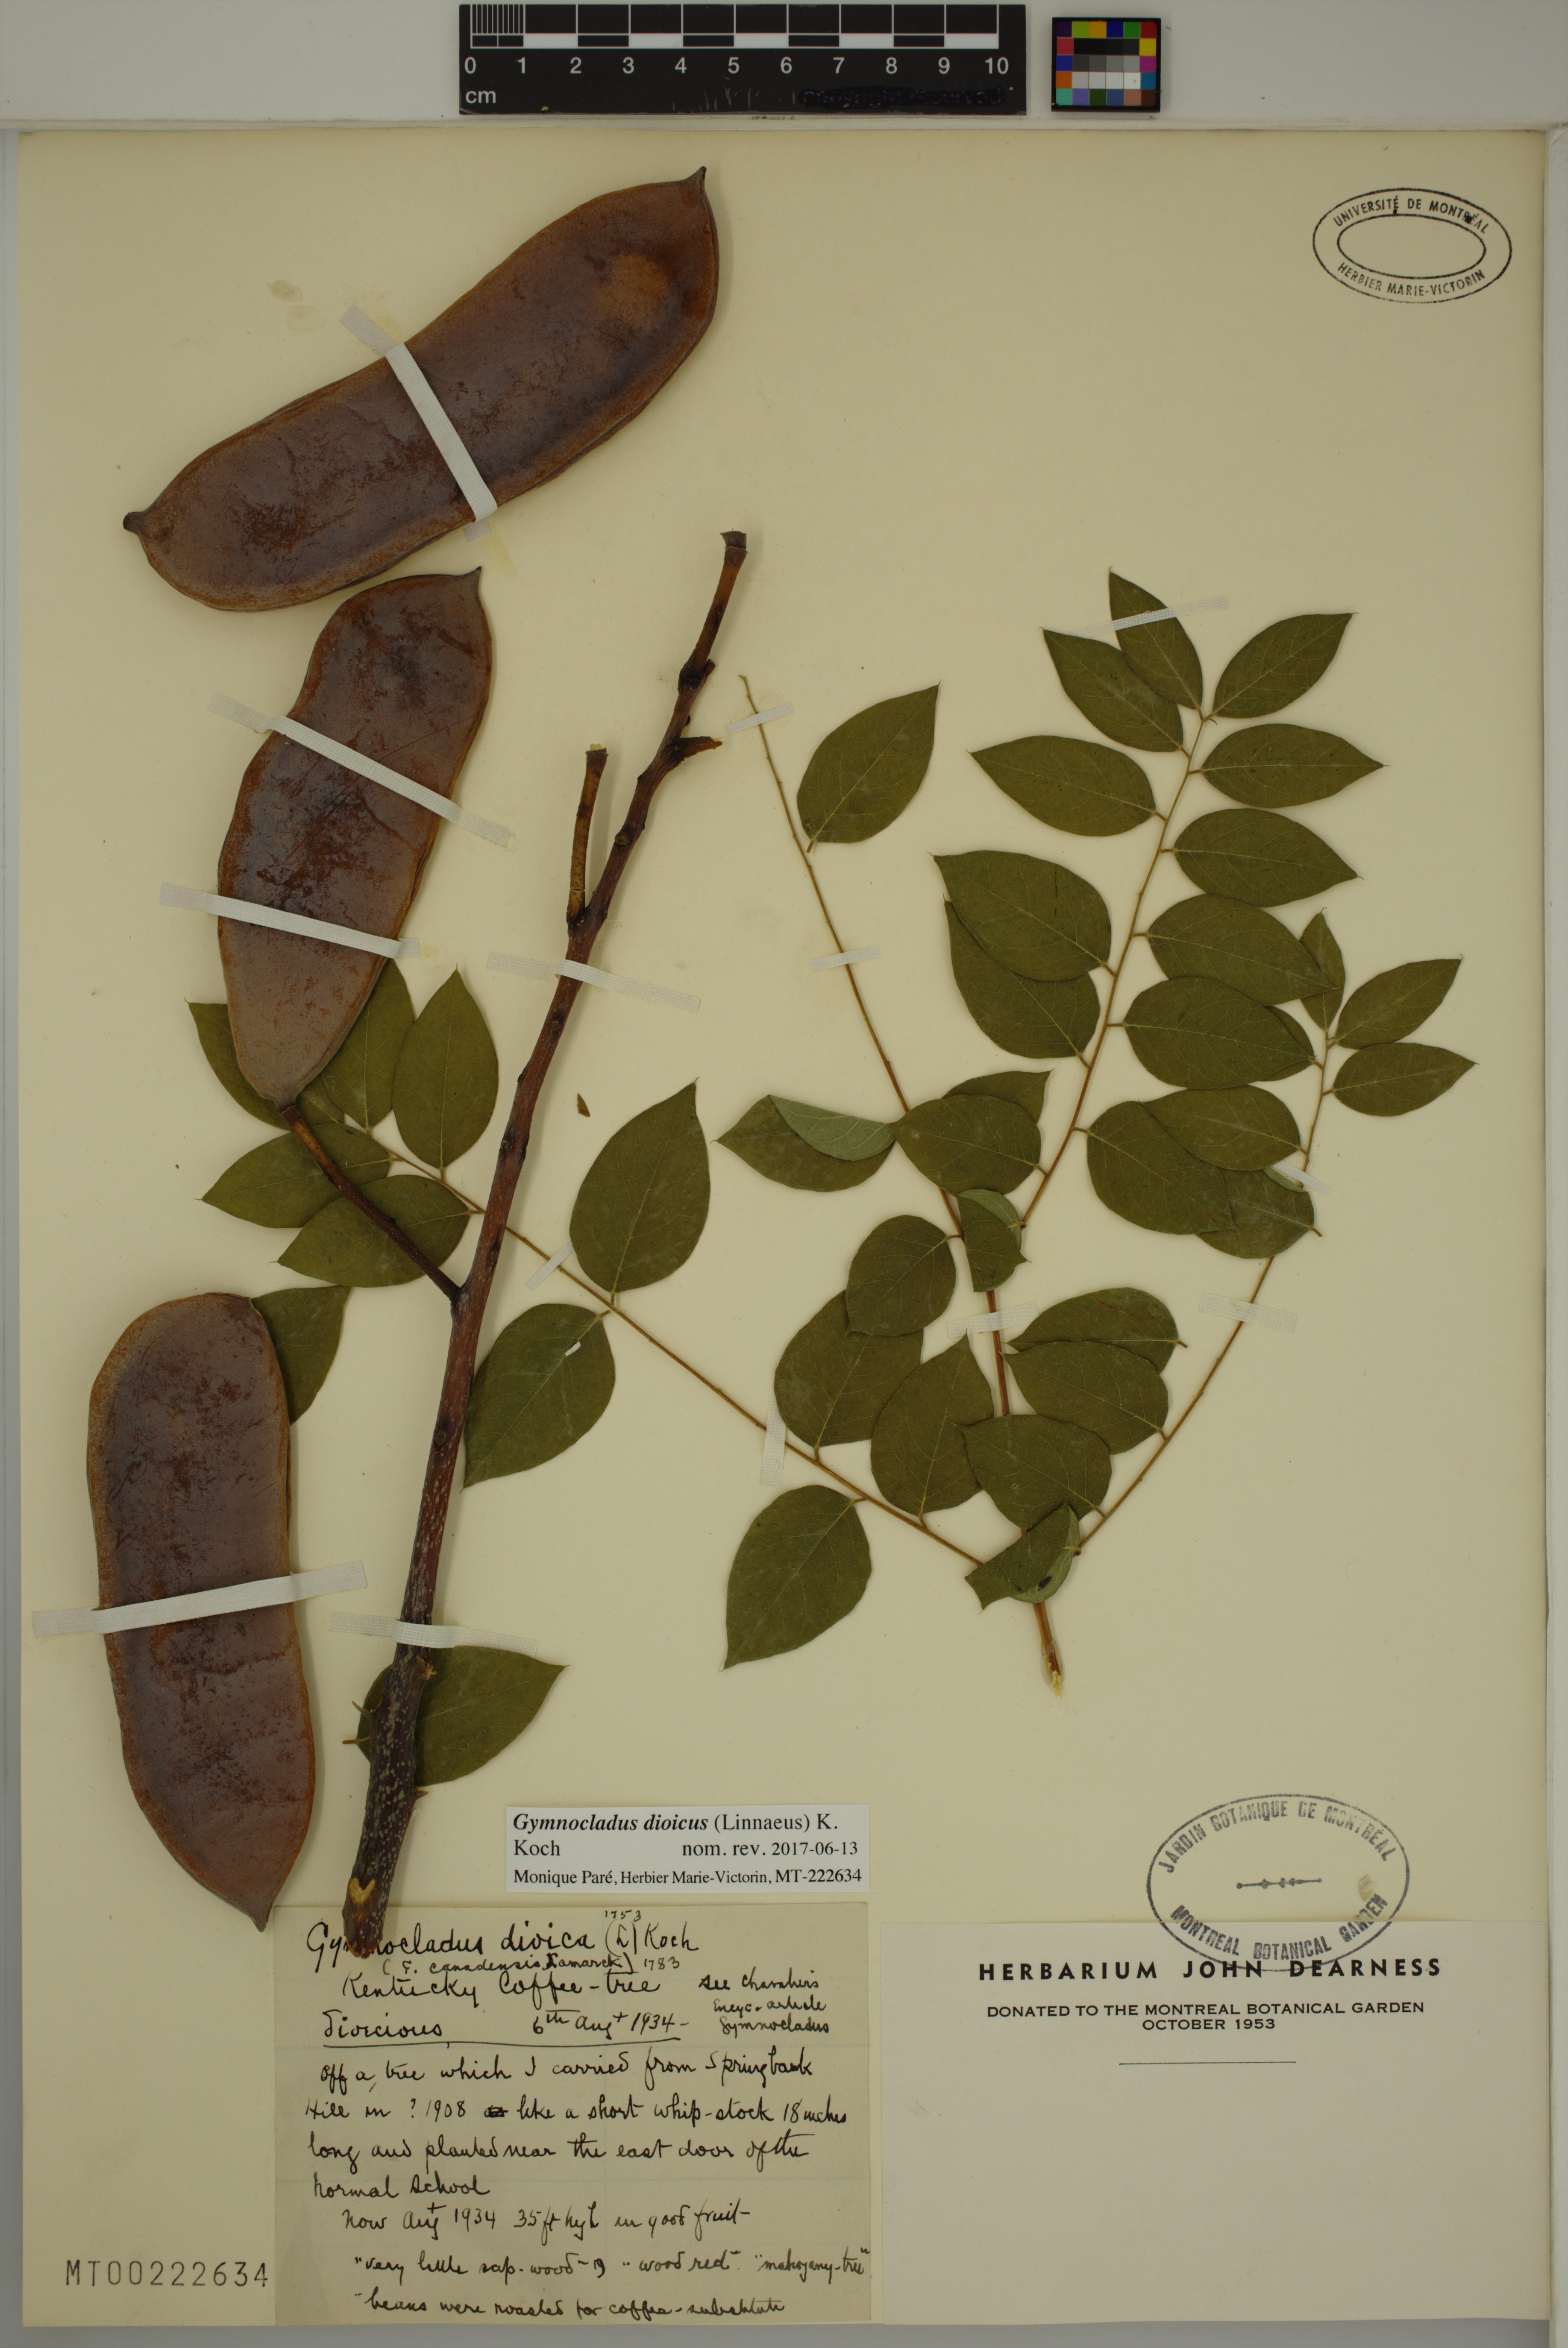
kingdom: Plantae
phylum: Tracheophyta
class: Magnoliopsida
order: Fabales
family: Fabaceae
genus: Gymnocladus
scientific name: Gymnocladus dioicus
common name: Kentucky coffee-tree
